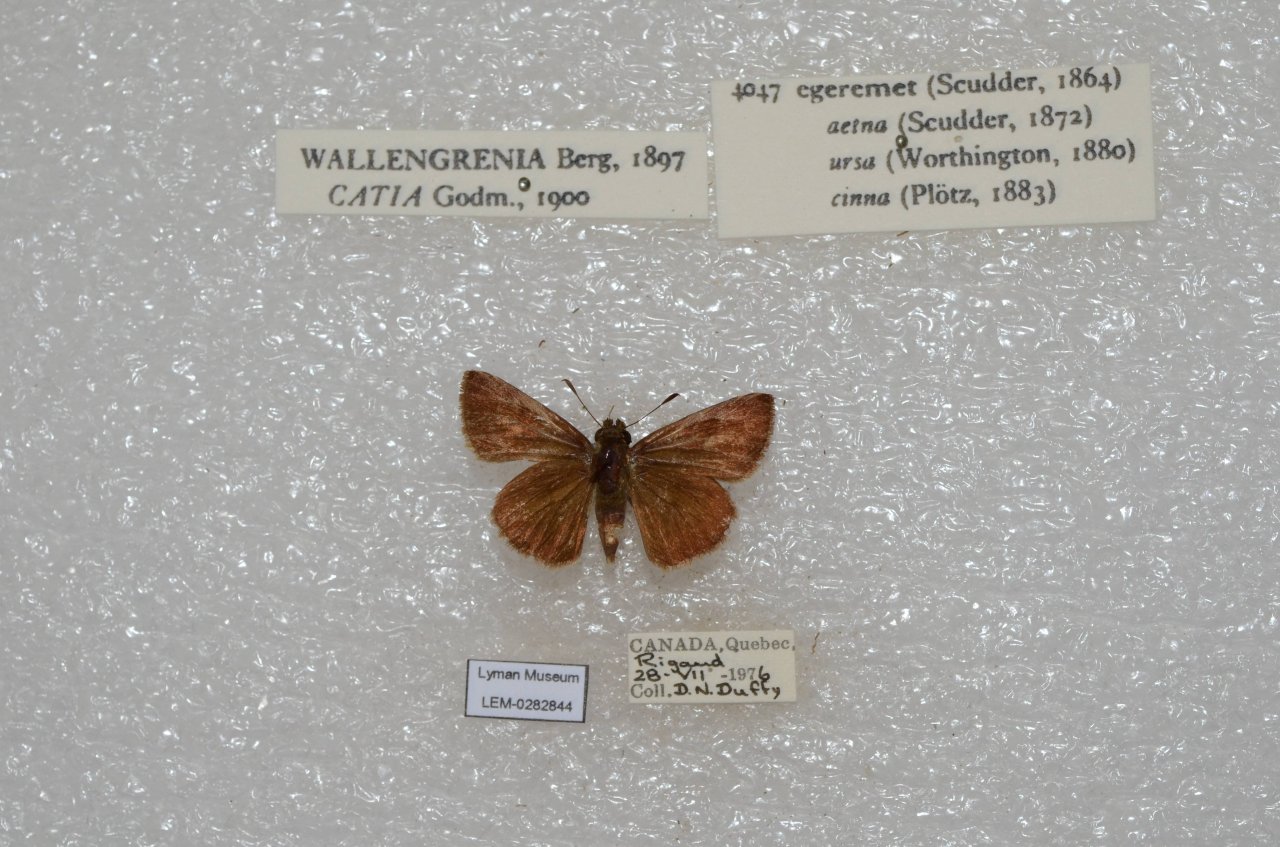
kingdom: Animalia
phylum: Arthropoda
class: Insecta
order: Lepidoptera
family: Hesperiidae
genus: Polites
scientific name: Polites egeremet
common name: Northern Broken-Dash
